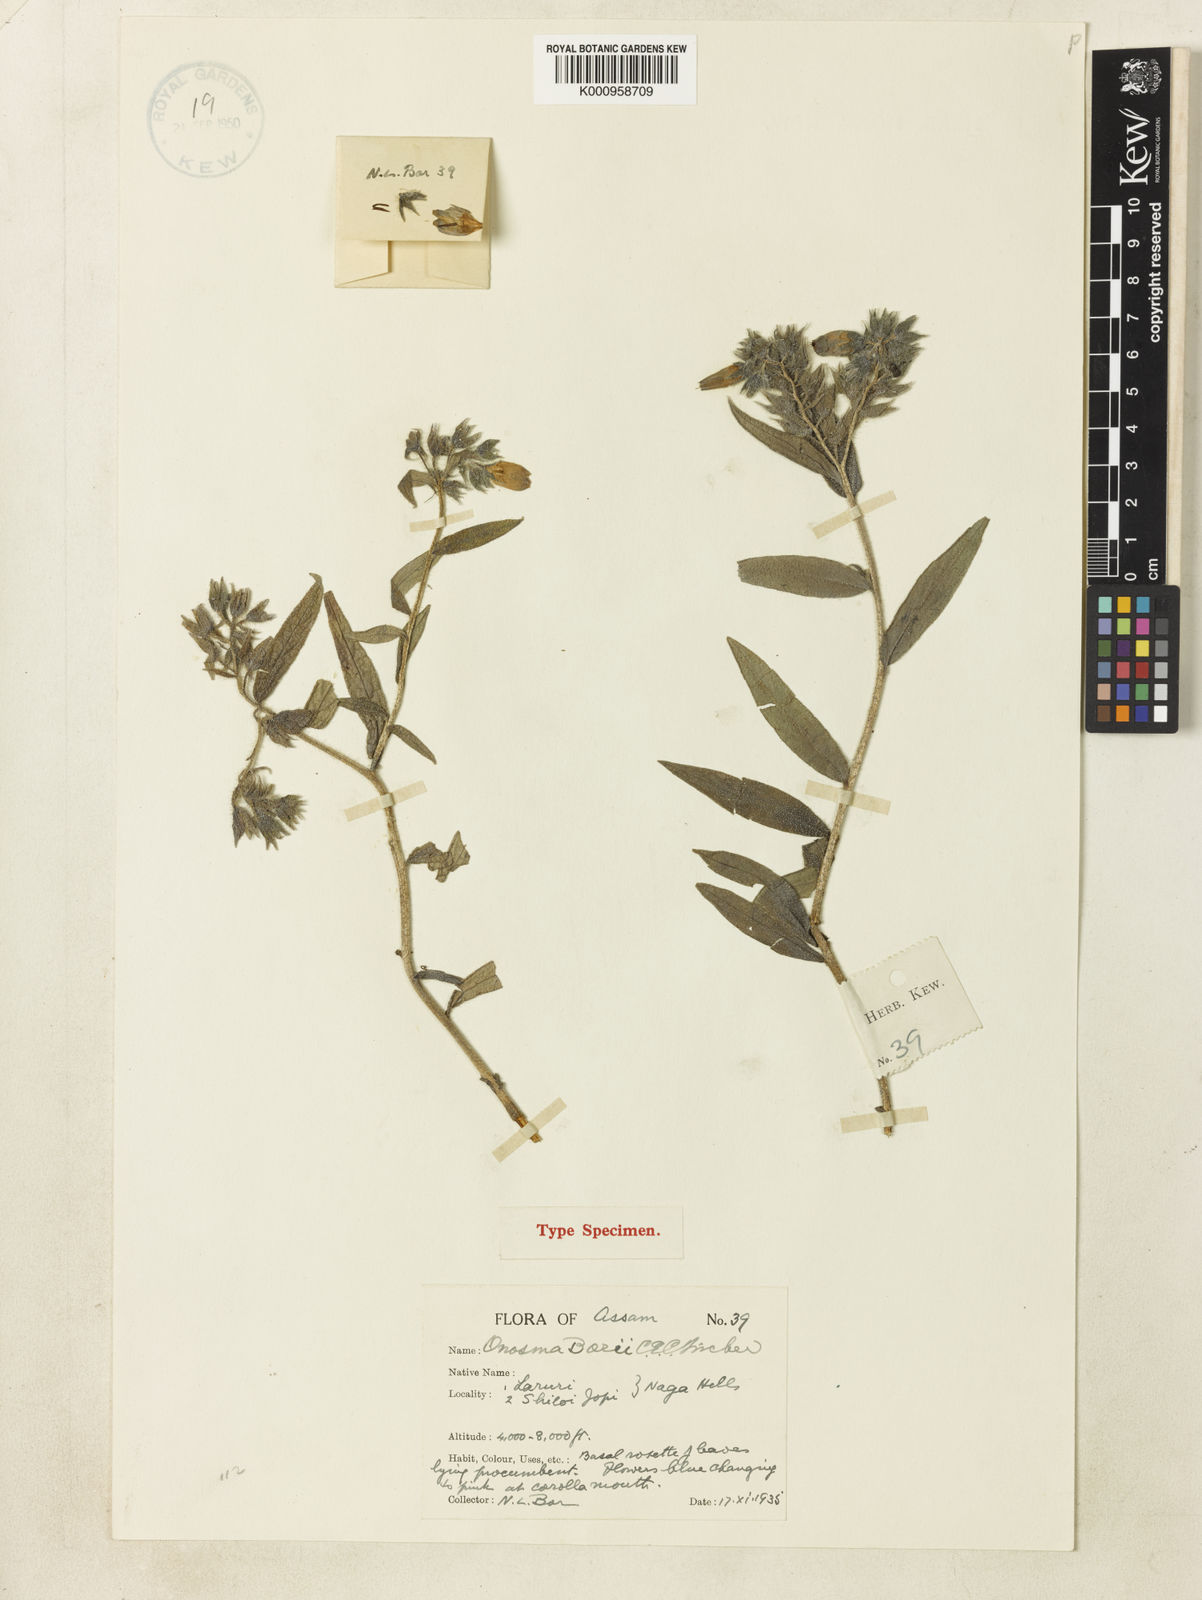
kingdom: Plantae
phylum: Tracheophyta
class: Magnoliopsida
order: Boraginales
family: Boraginaceae
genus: Maharanga
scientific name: Maharanga borii
